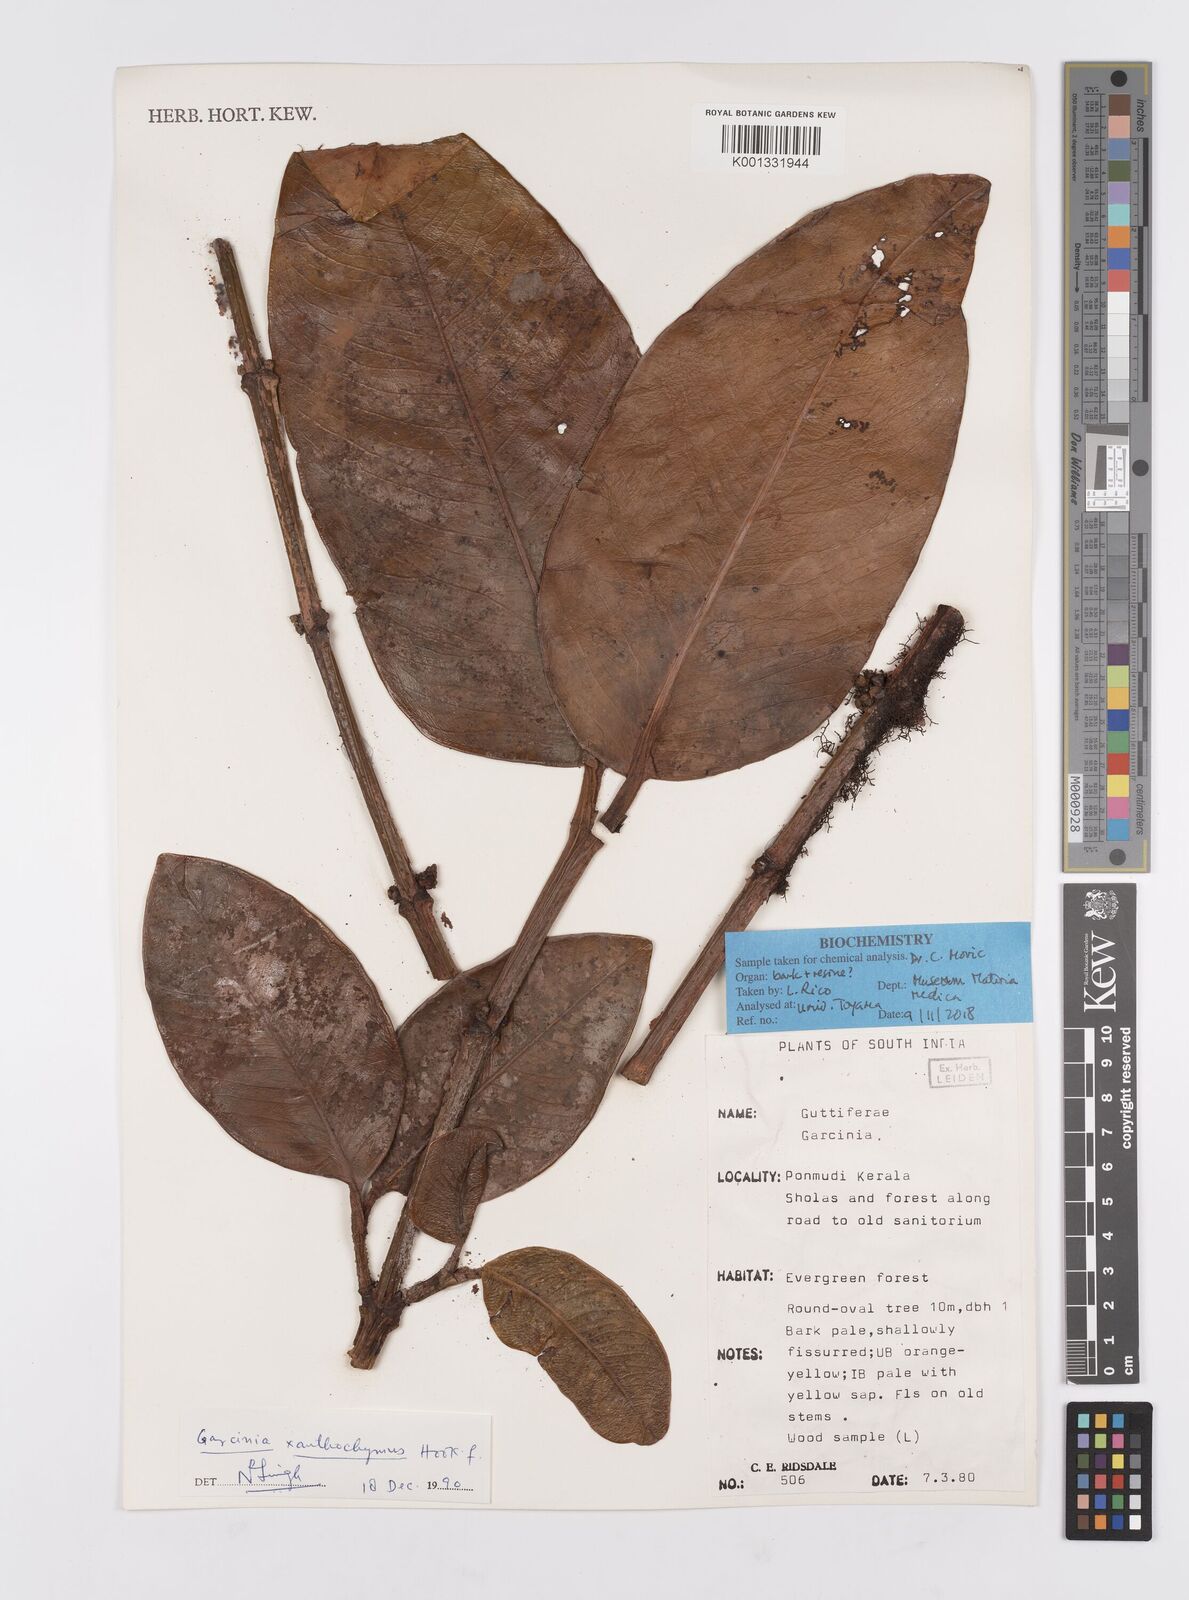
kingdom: Plantae
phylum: Tracheophyta
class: Magnoliopsida
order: Malpighiales
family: Clusiaceae
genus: Garcinia
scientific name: Garcinia
